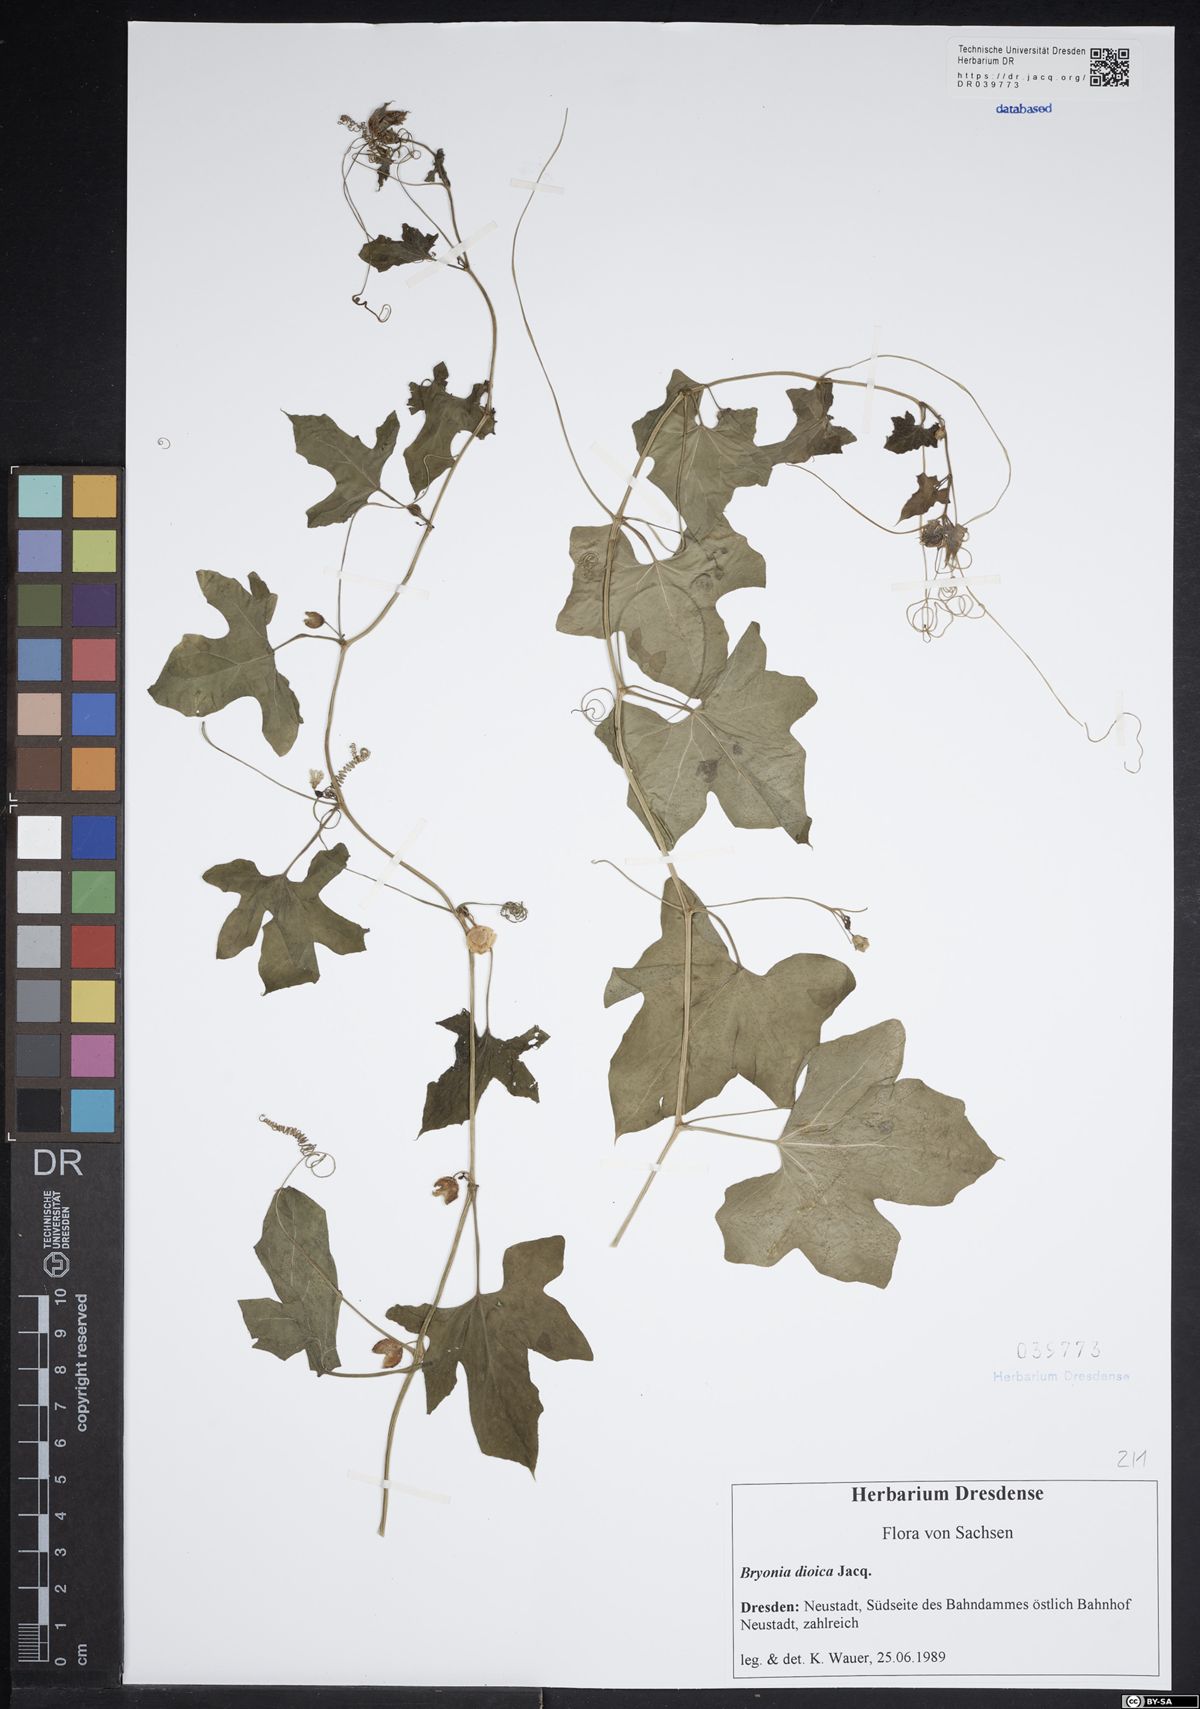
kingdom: Plantae
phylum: Tracheophyta
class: Magnoliopsida
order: Cucurbitales
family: Cucurbitaceae
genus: Bryonia
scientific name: Bryonia dioica
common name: White bryony
